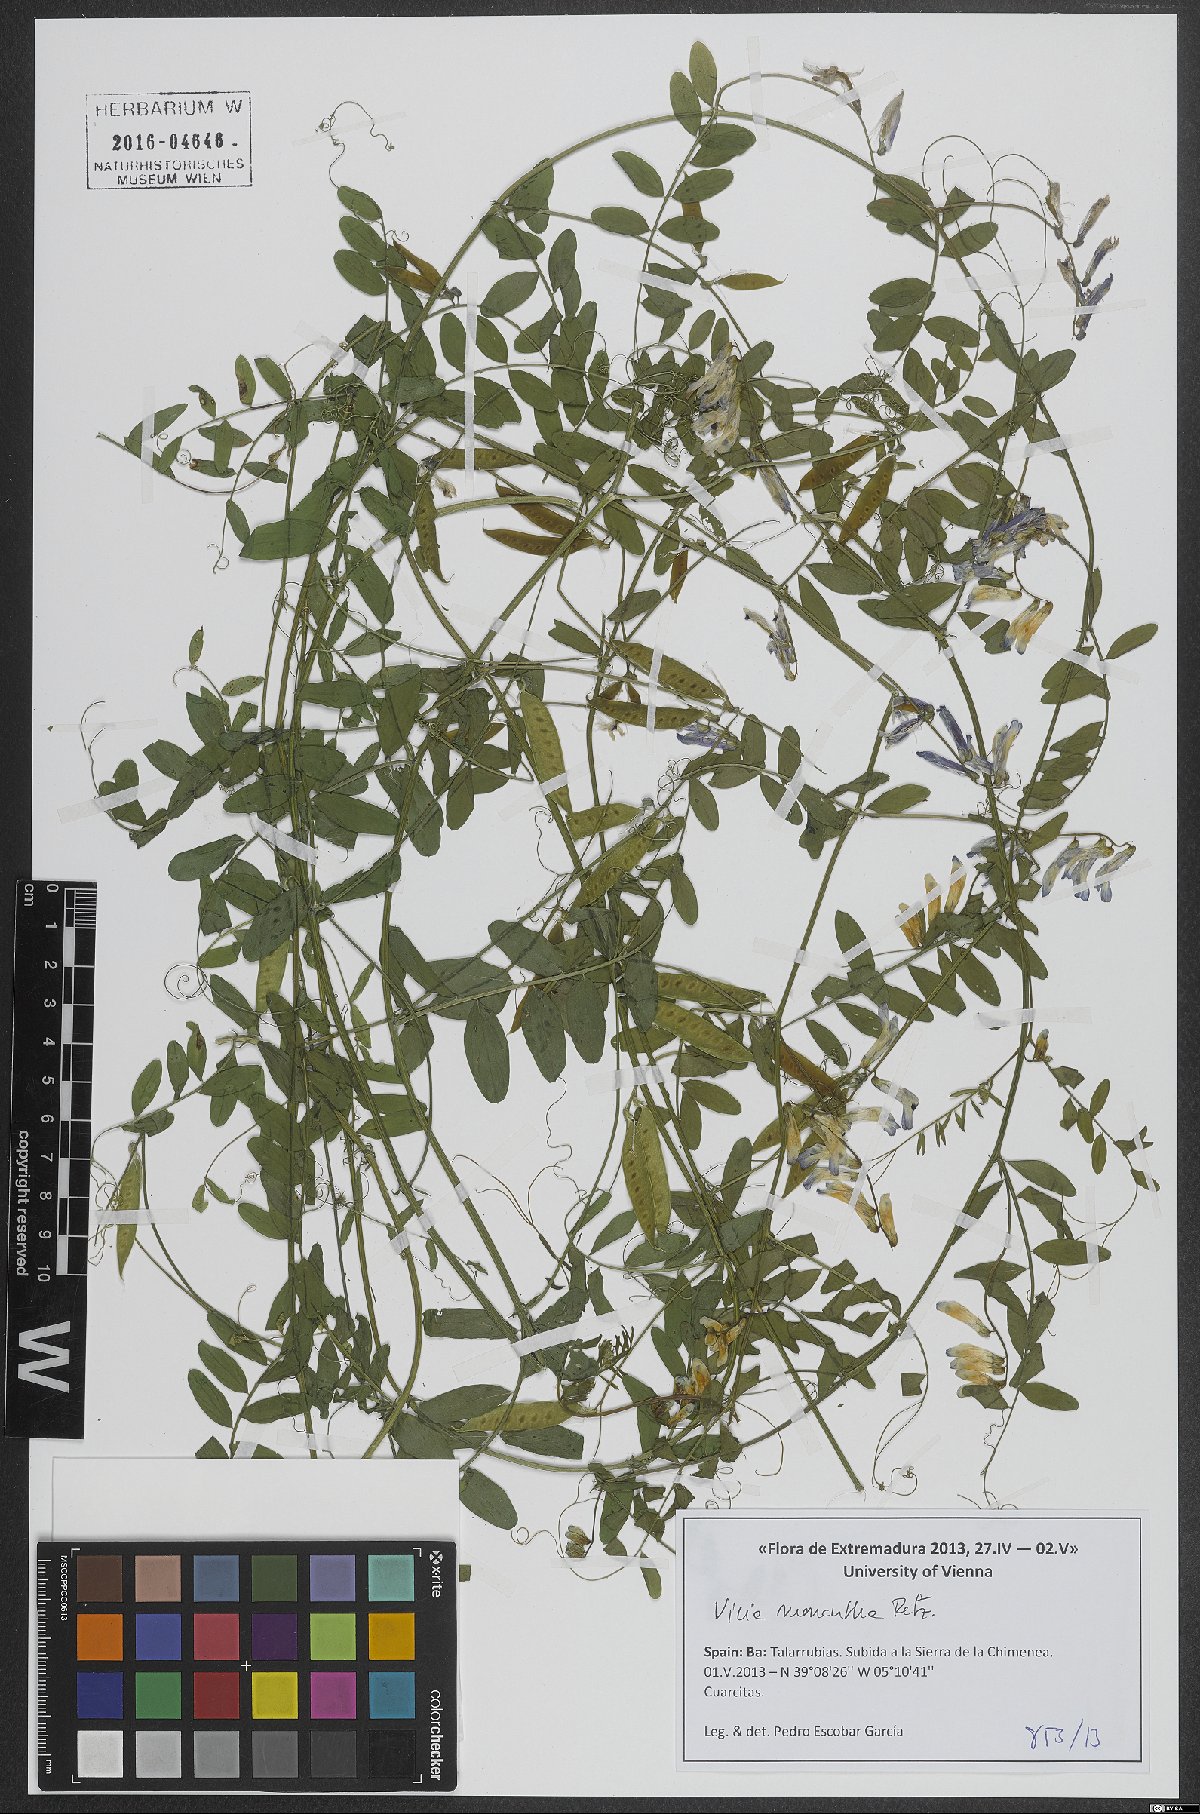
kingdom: Plantae
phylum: Tracheophyta
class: Magnoliopsida
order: Fabales
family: Fabaceae
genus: Vicia
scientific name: Vicia monantha
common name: Barn vetch
